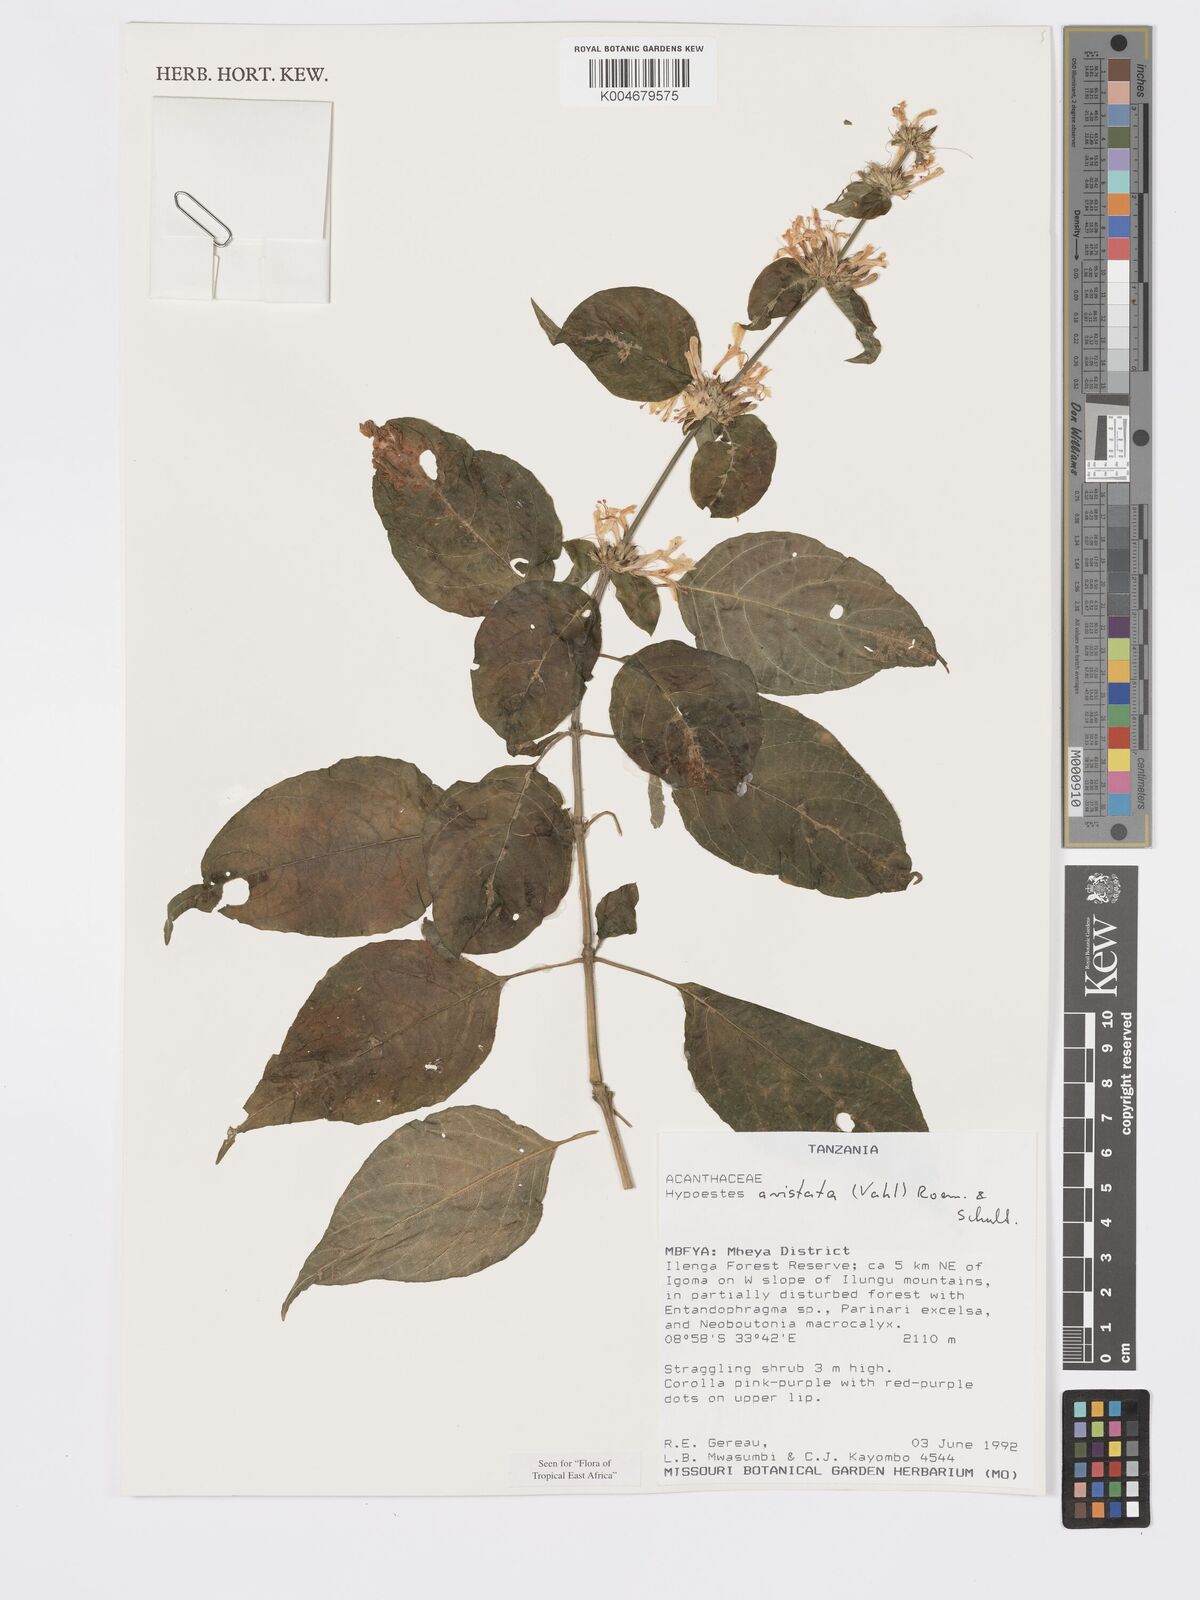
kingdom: Plantae
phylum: Tracheophyta
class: Magnoliopsida
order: Lamiales
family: Acanthaceae
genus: Hypoestes
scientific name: Hypoestes aristata
